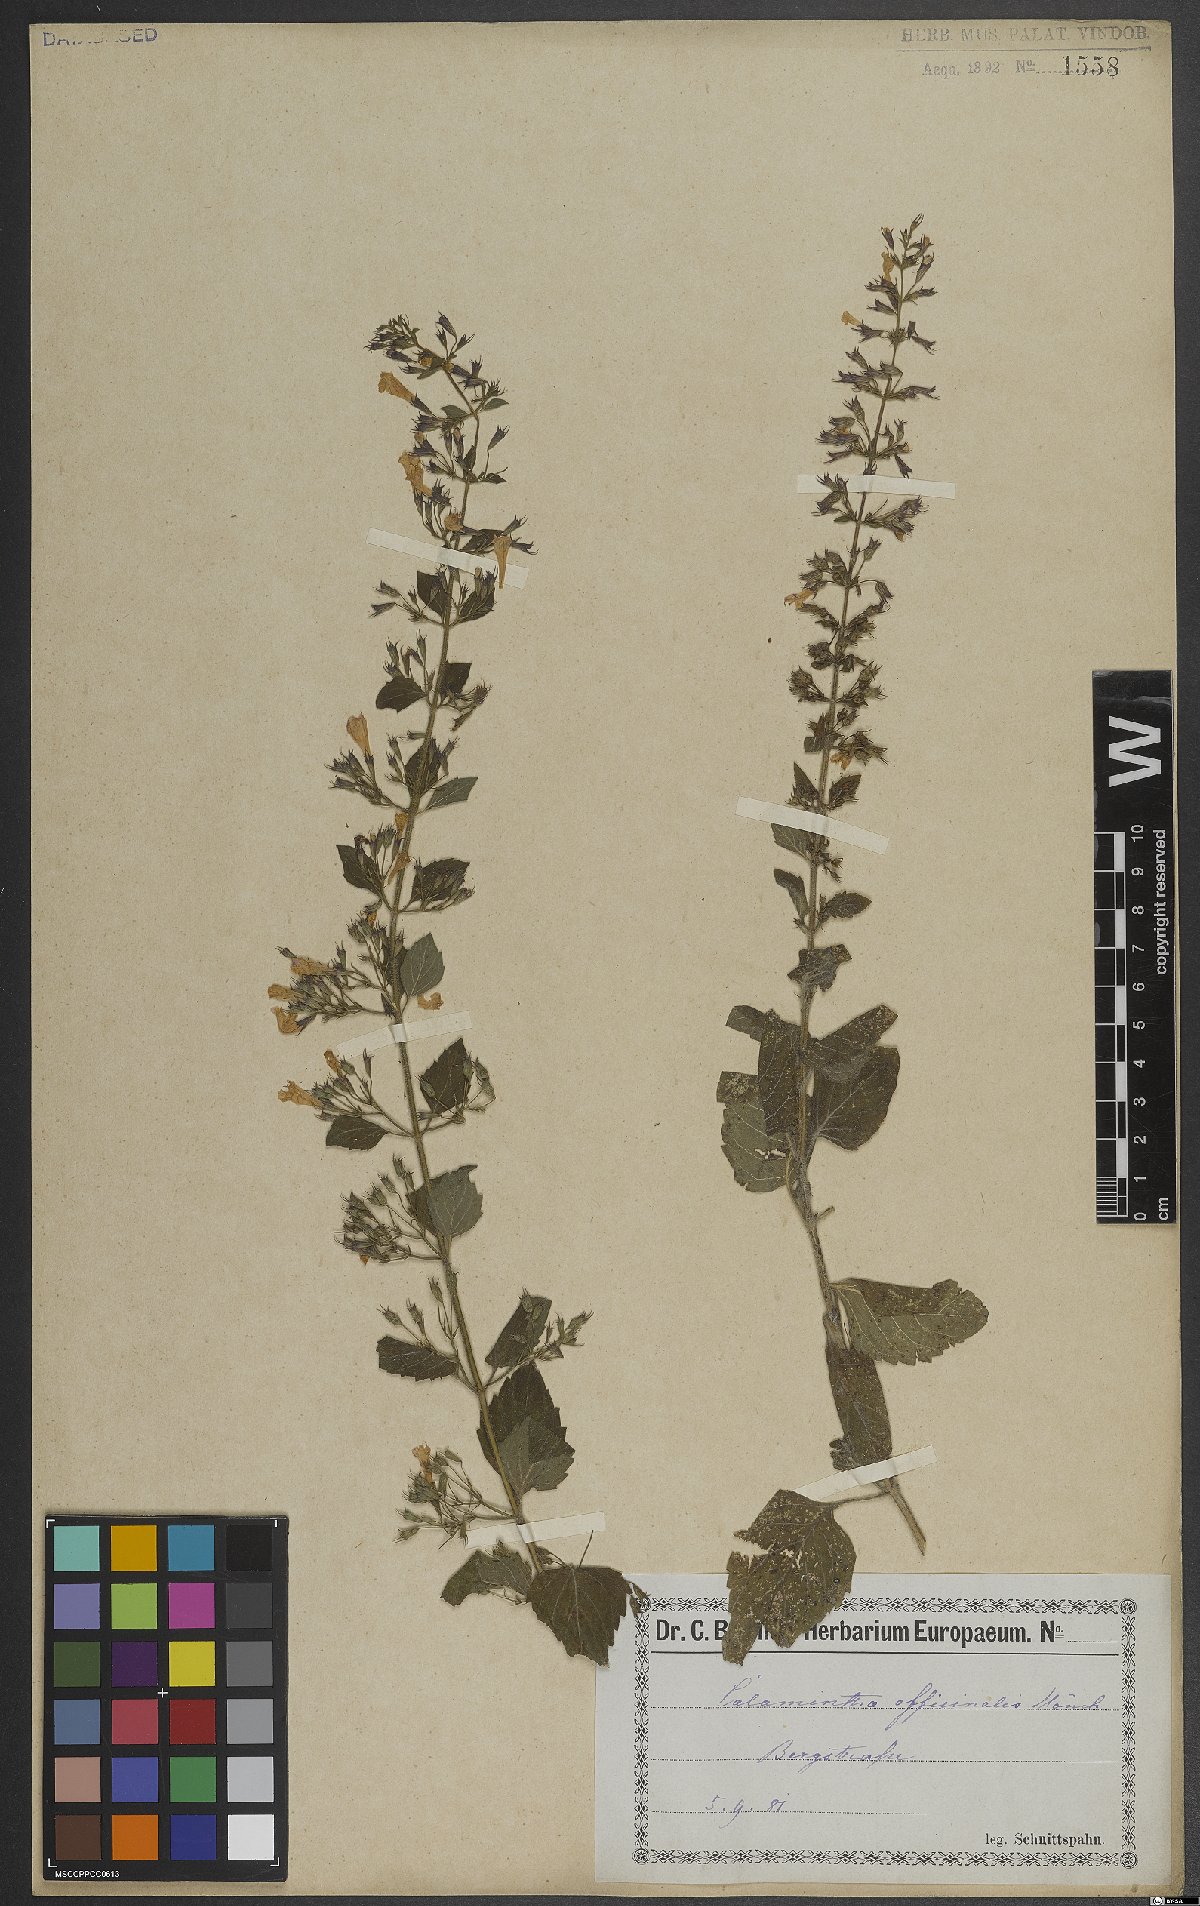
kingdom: Plantae
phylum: Tracheophyta
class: Magnoliopsida
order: Lamiales
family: Lamiaceae
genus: Clinopodium
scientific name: Clinopodium nepeta
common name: Lesser calamint
